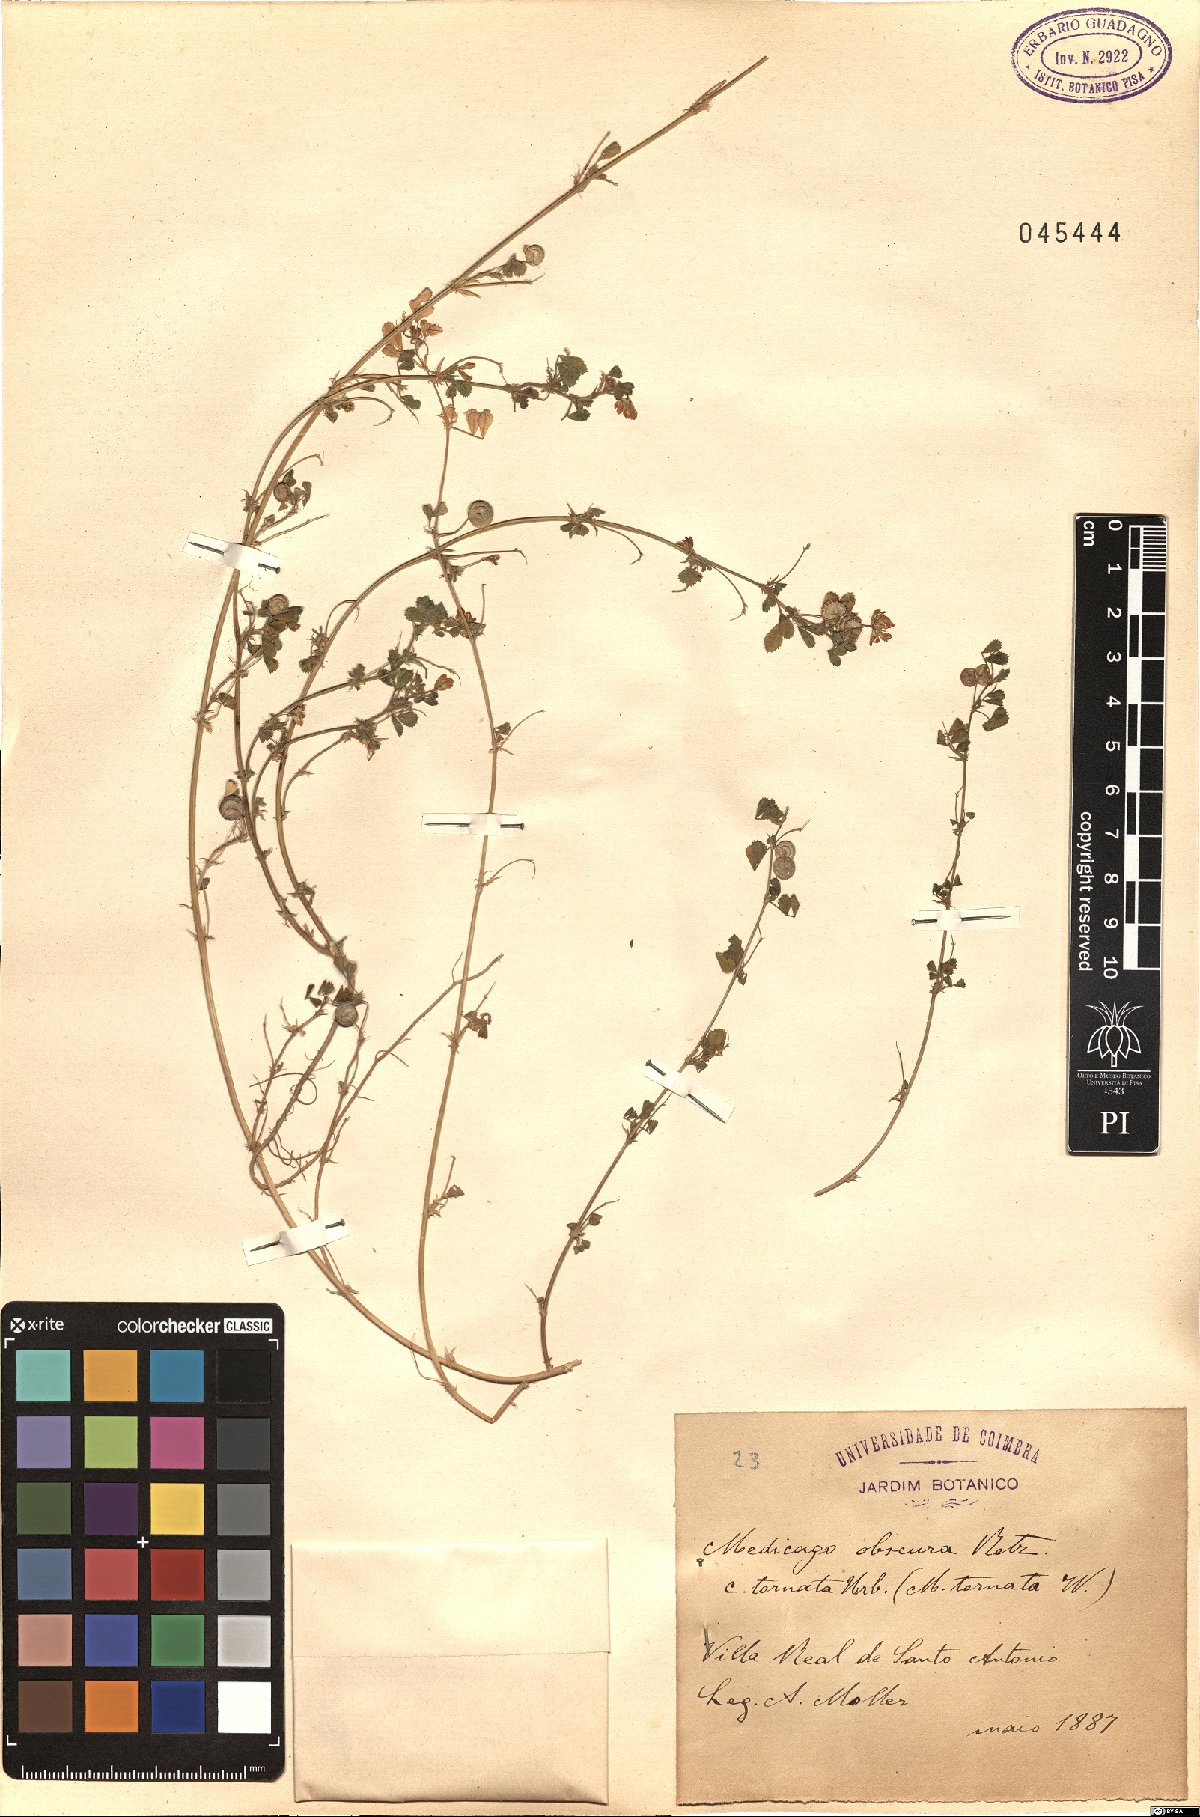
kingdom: Plantae
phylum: Tracheophyta
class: Magnoliopsida
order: Fabales
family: Fabaceae
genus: Medicago
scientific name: Medicago tornata
